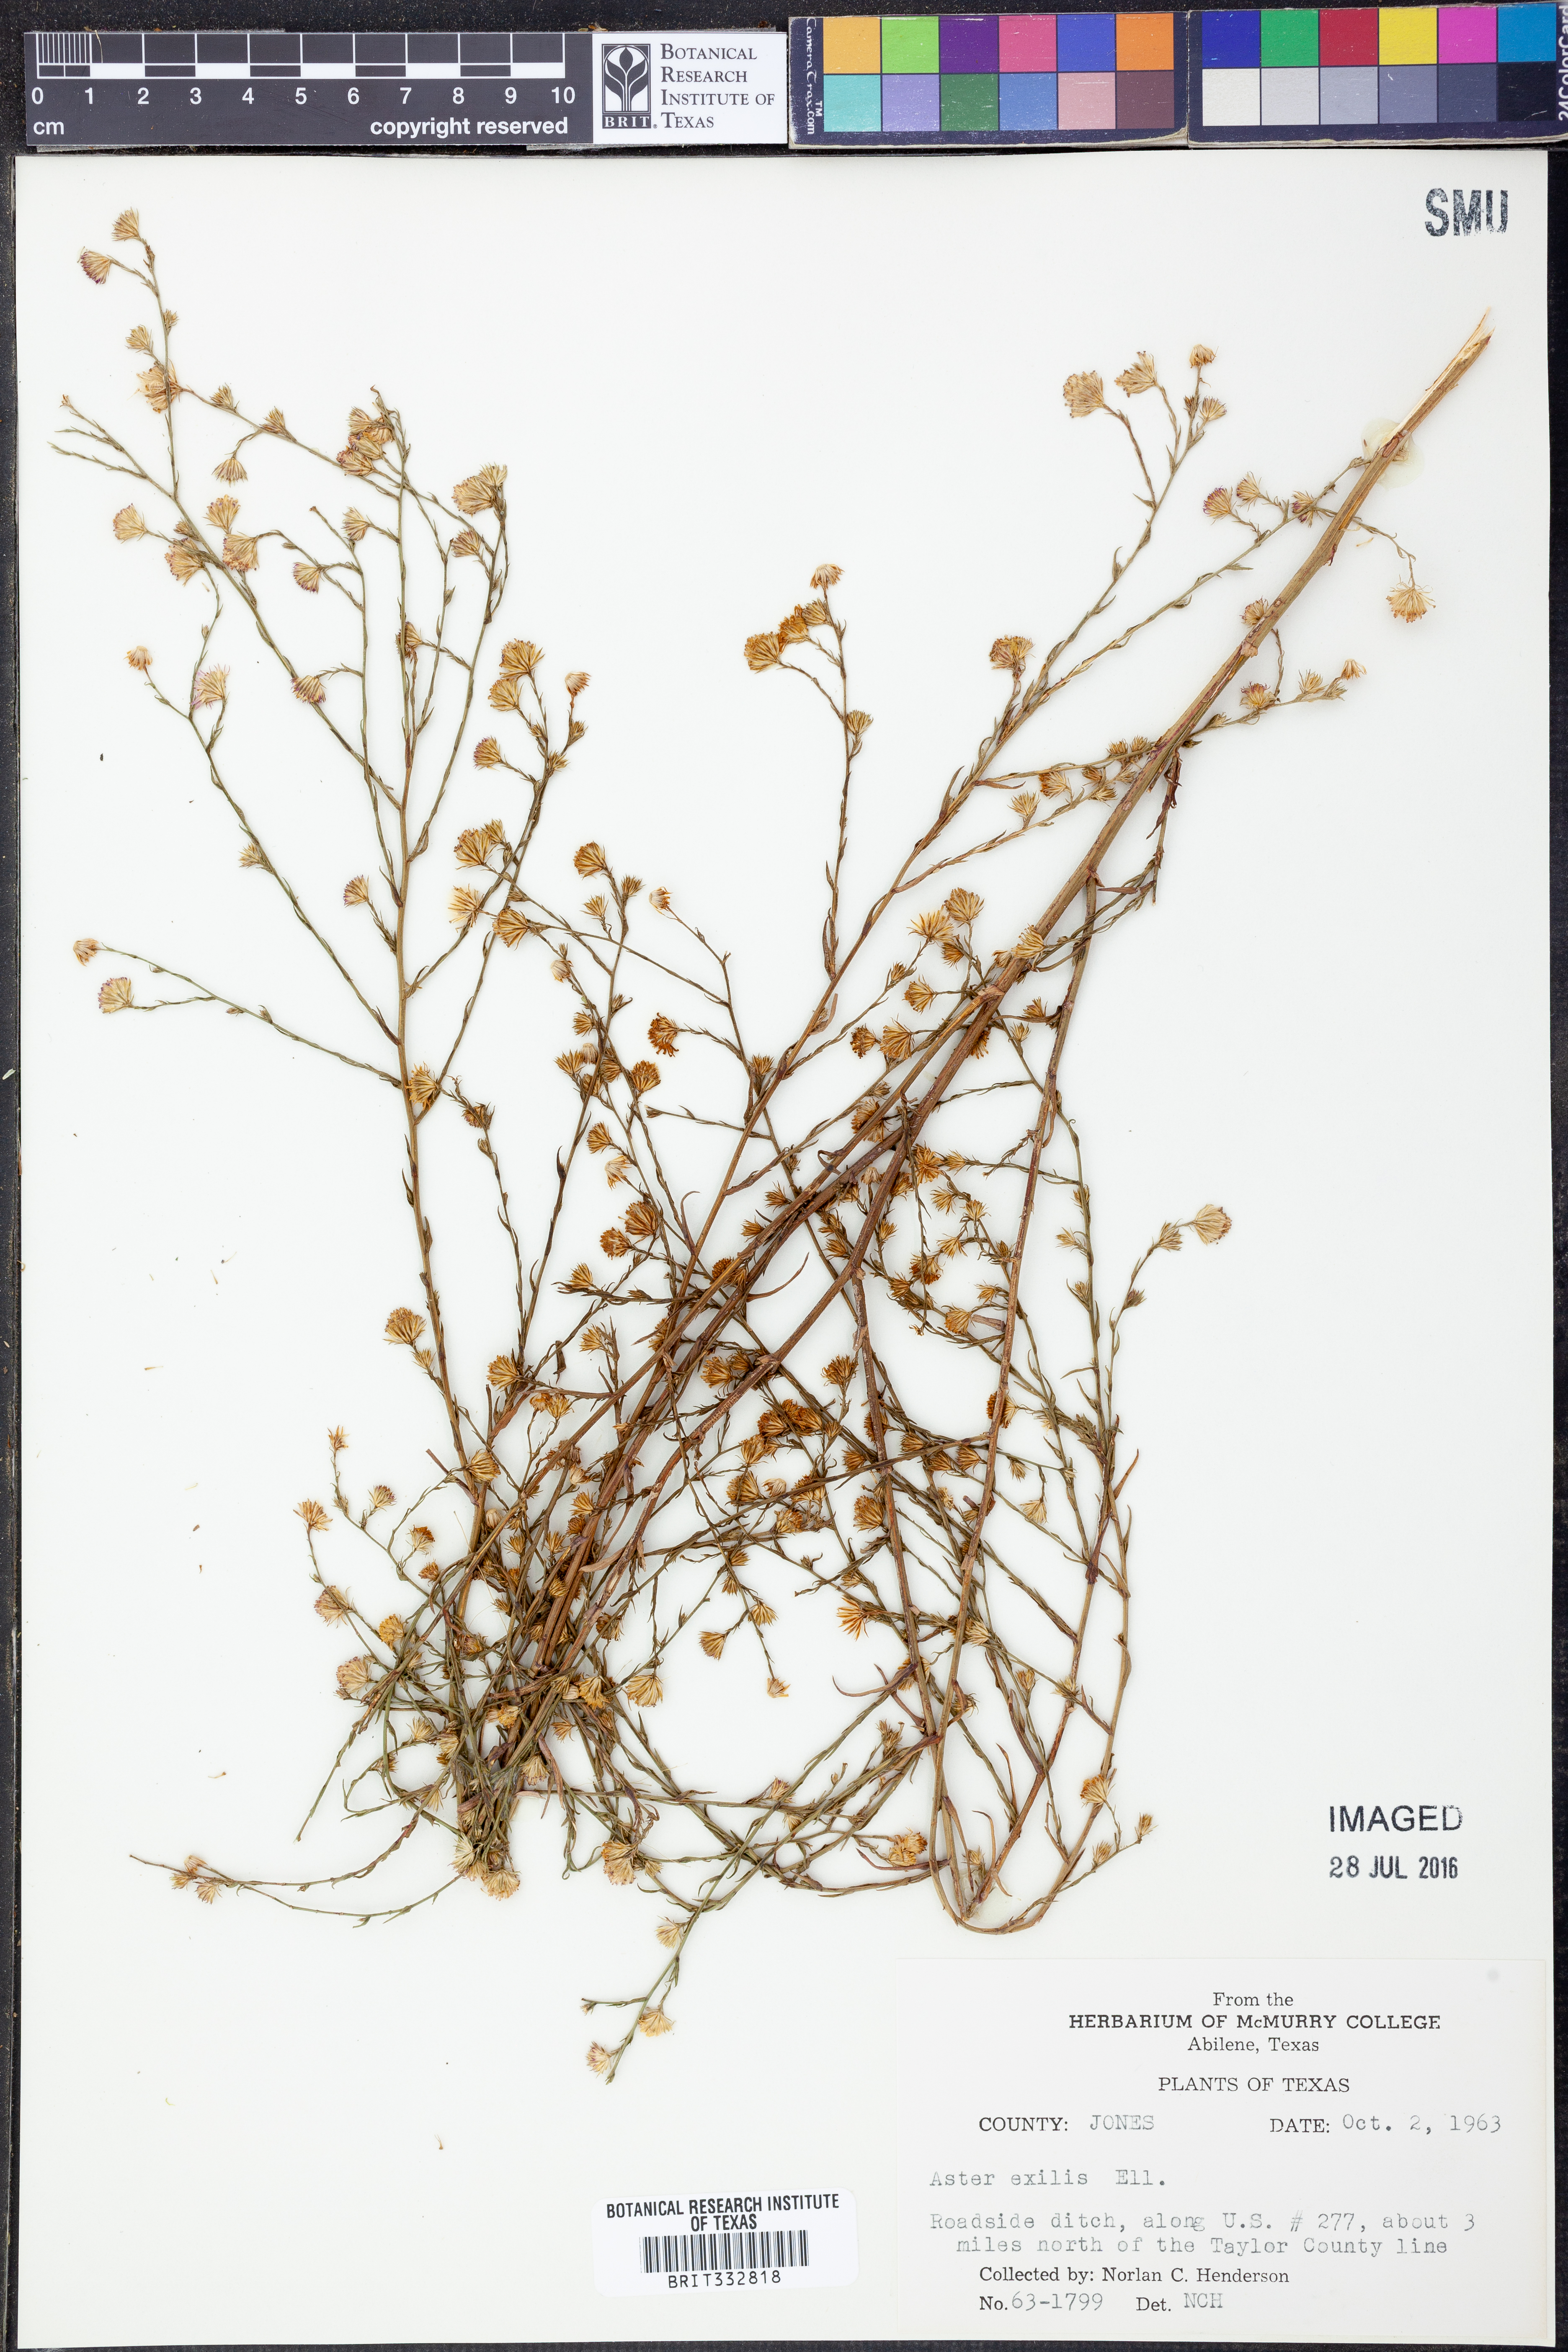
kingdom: Plantae
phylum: Tracheophyta
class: Magnoliopsida
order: Asterales
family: Asteraceae
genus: Symphyotrichum
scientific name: Symphyotrichum expansum
